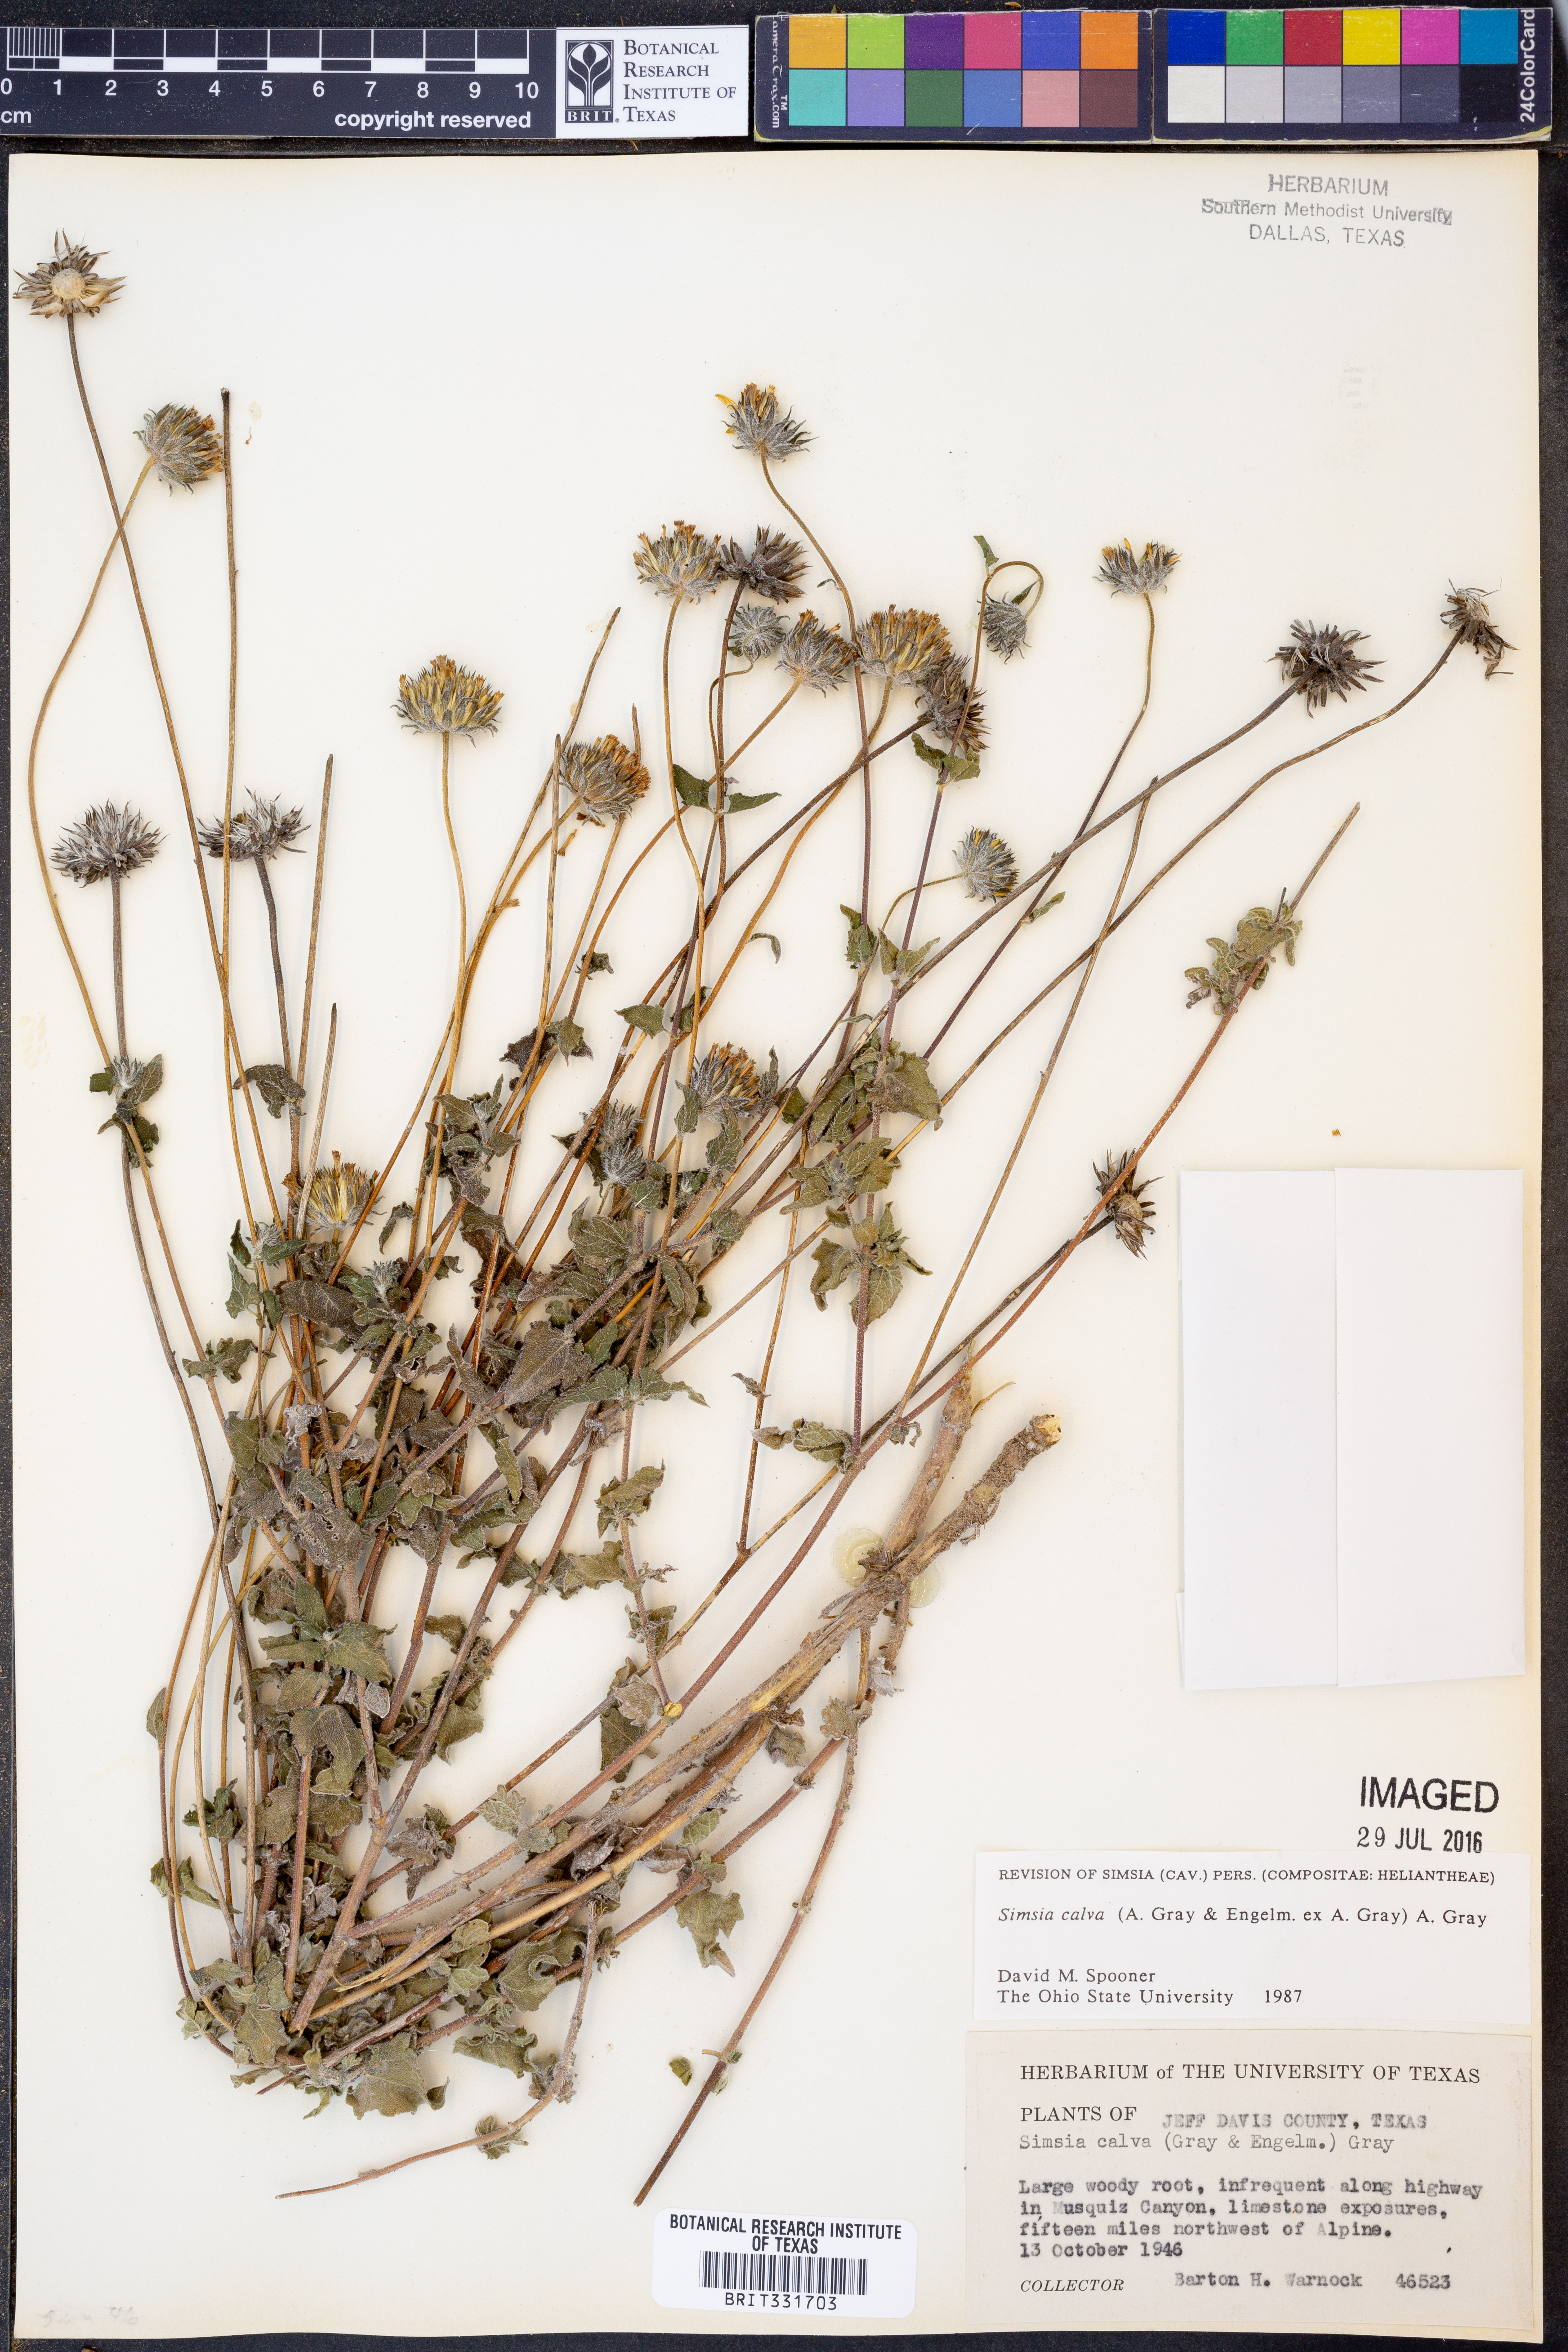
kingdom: Plantae
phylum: Tracheophyta
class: Magnoliopsida
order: Asterales
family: Asteraceae
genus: Simsia
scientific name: Simsia calva
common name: Awnless bush-sunflower
